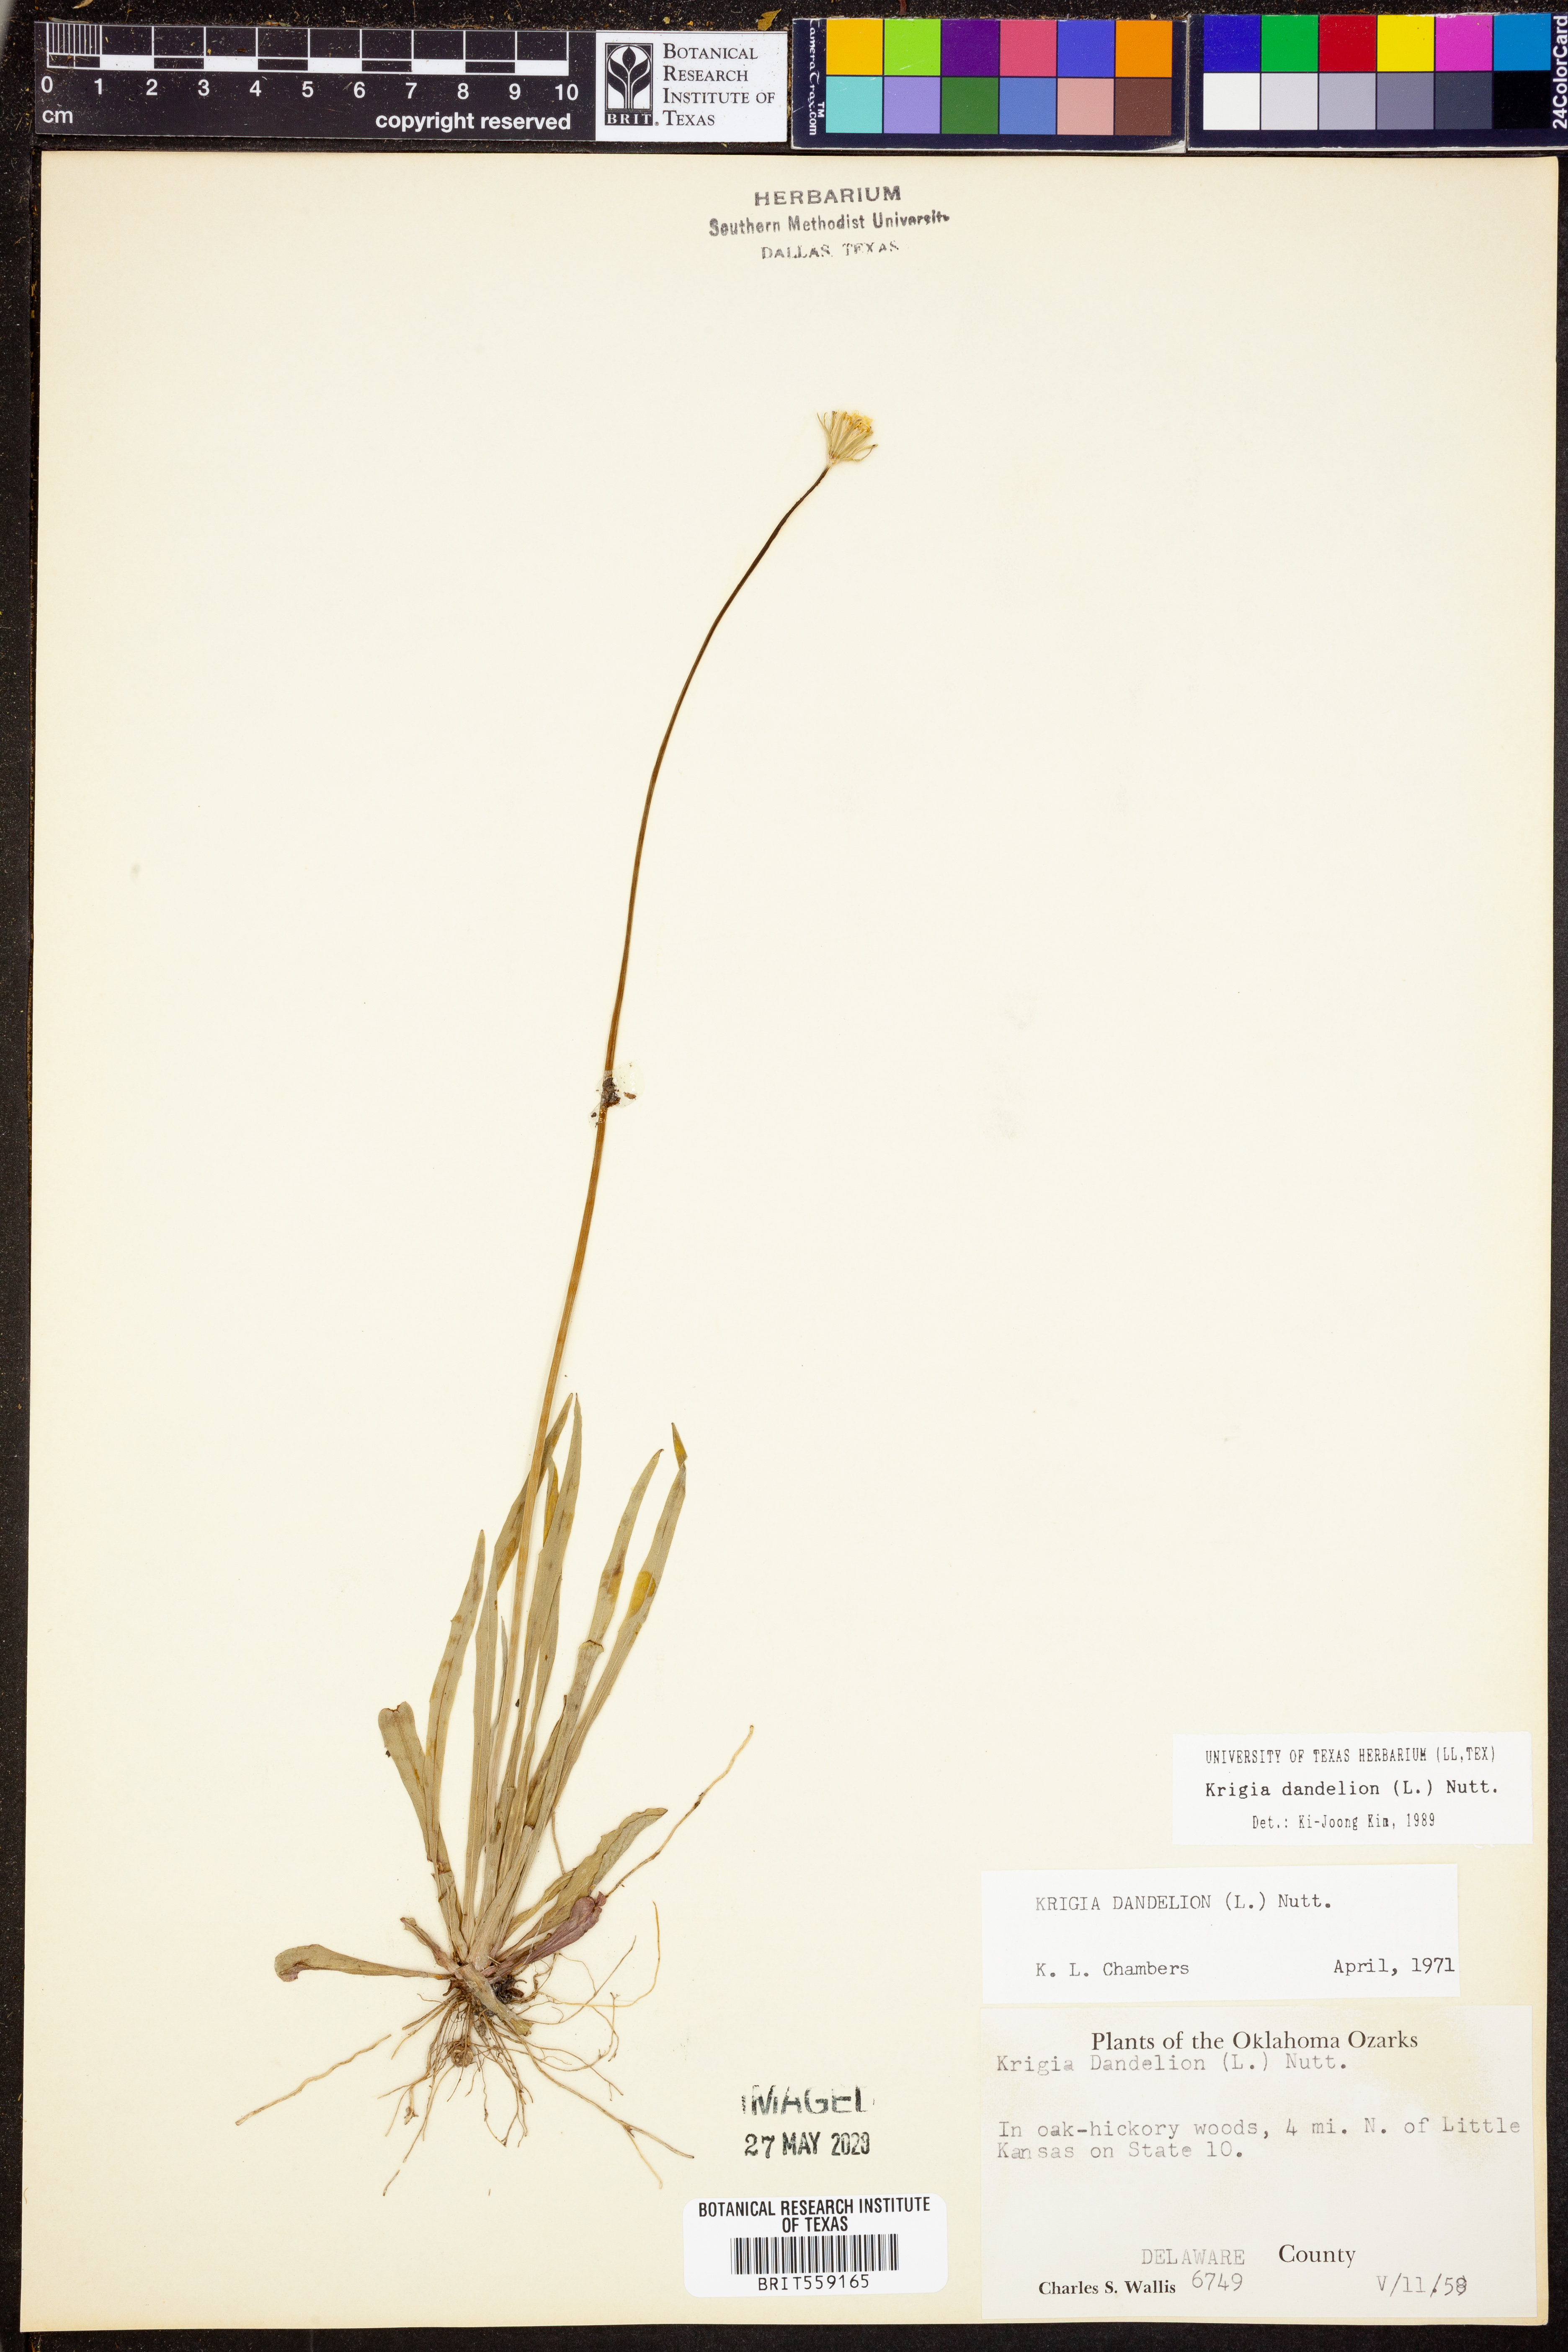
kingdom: Plantae
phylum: Tracheophyta
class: Magnoliopsida
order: Asterales
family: Asteraceae
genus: Krigia
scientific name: Krigia dandelion
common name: Colonial dwarf-dandelion
